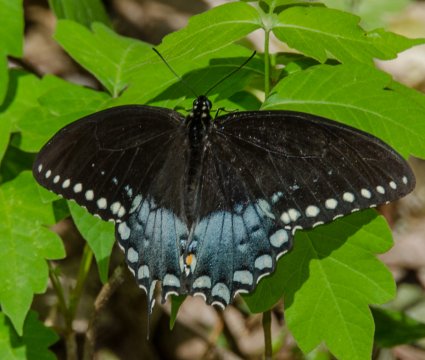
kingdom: Animalia
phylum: Arthropoda
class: Insecta
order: Lepidoptera
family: Papilionidae
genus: Pterourus
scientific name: Pterourus troilus
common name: Spicebush Swallowtail
